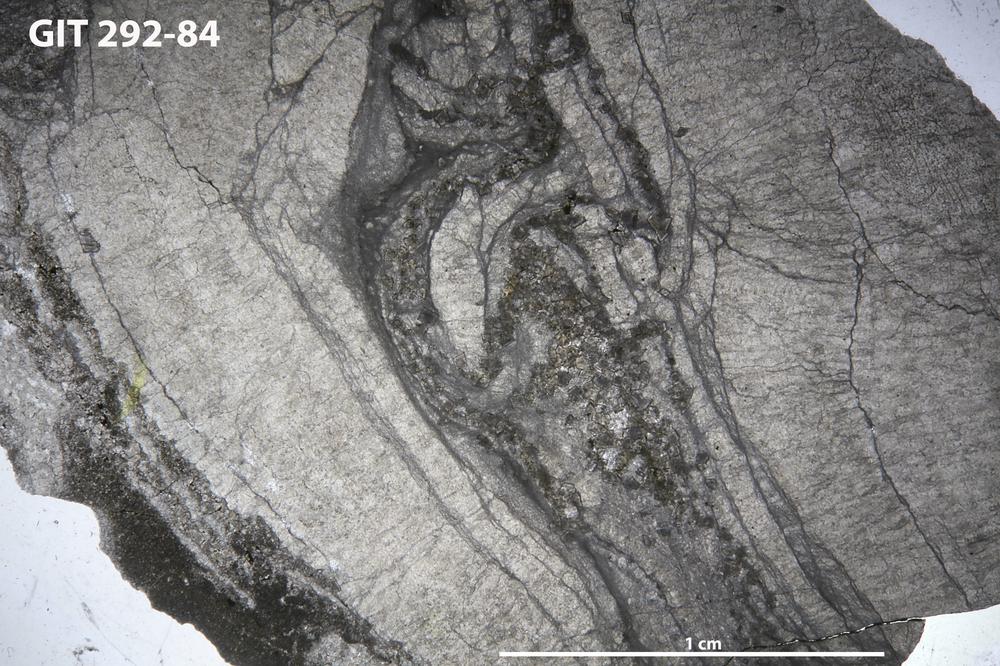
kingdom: Animalia
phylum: Porifera
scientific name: Porifera
